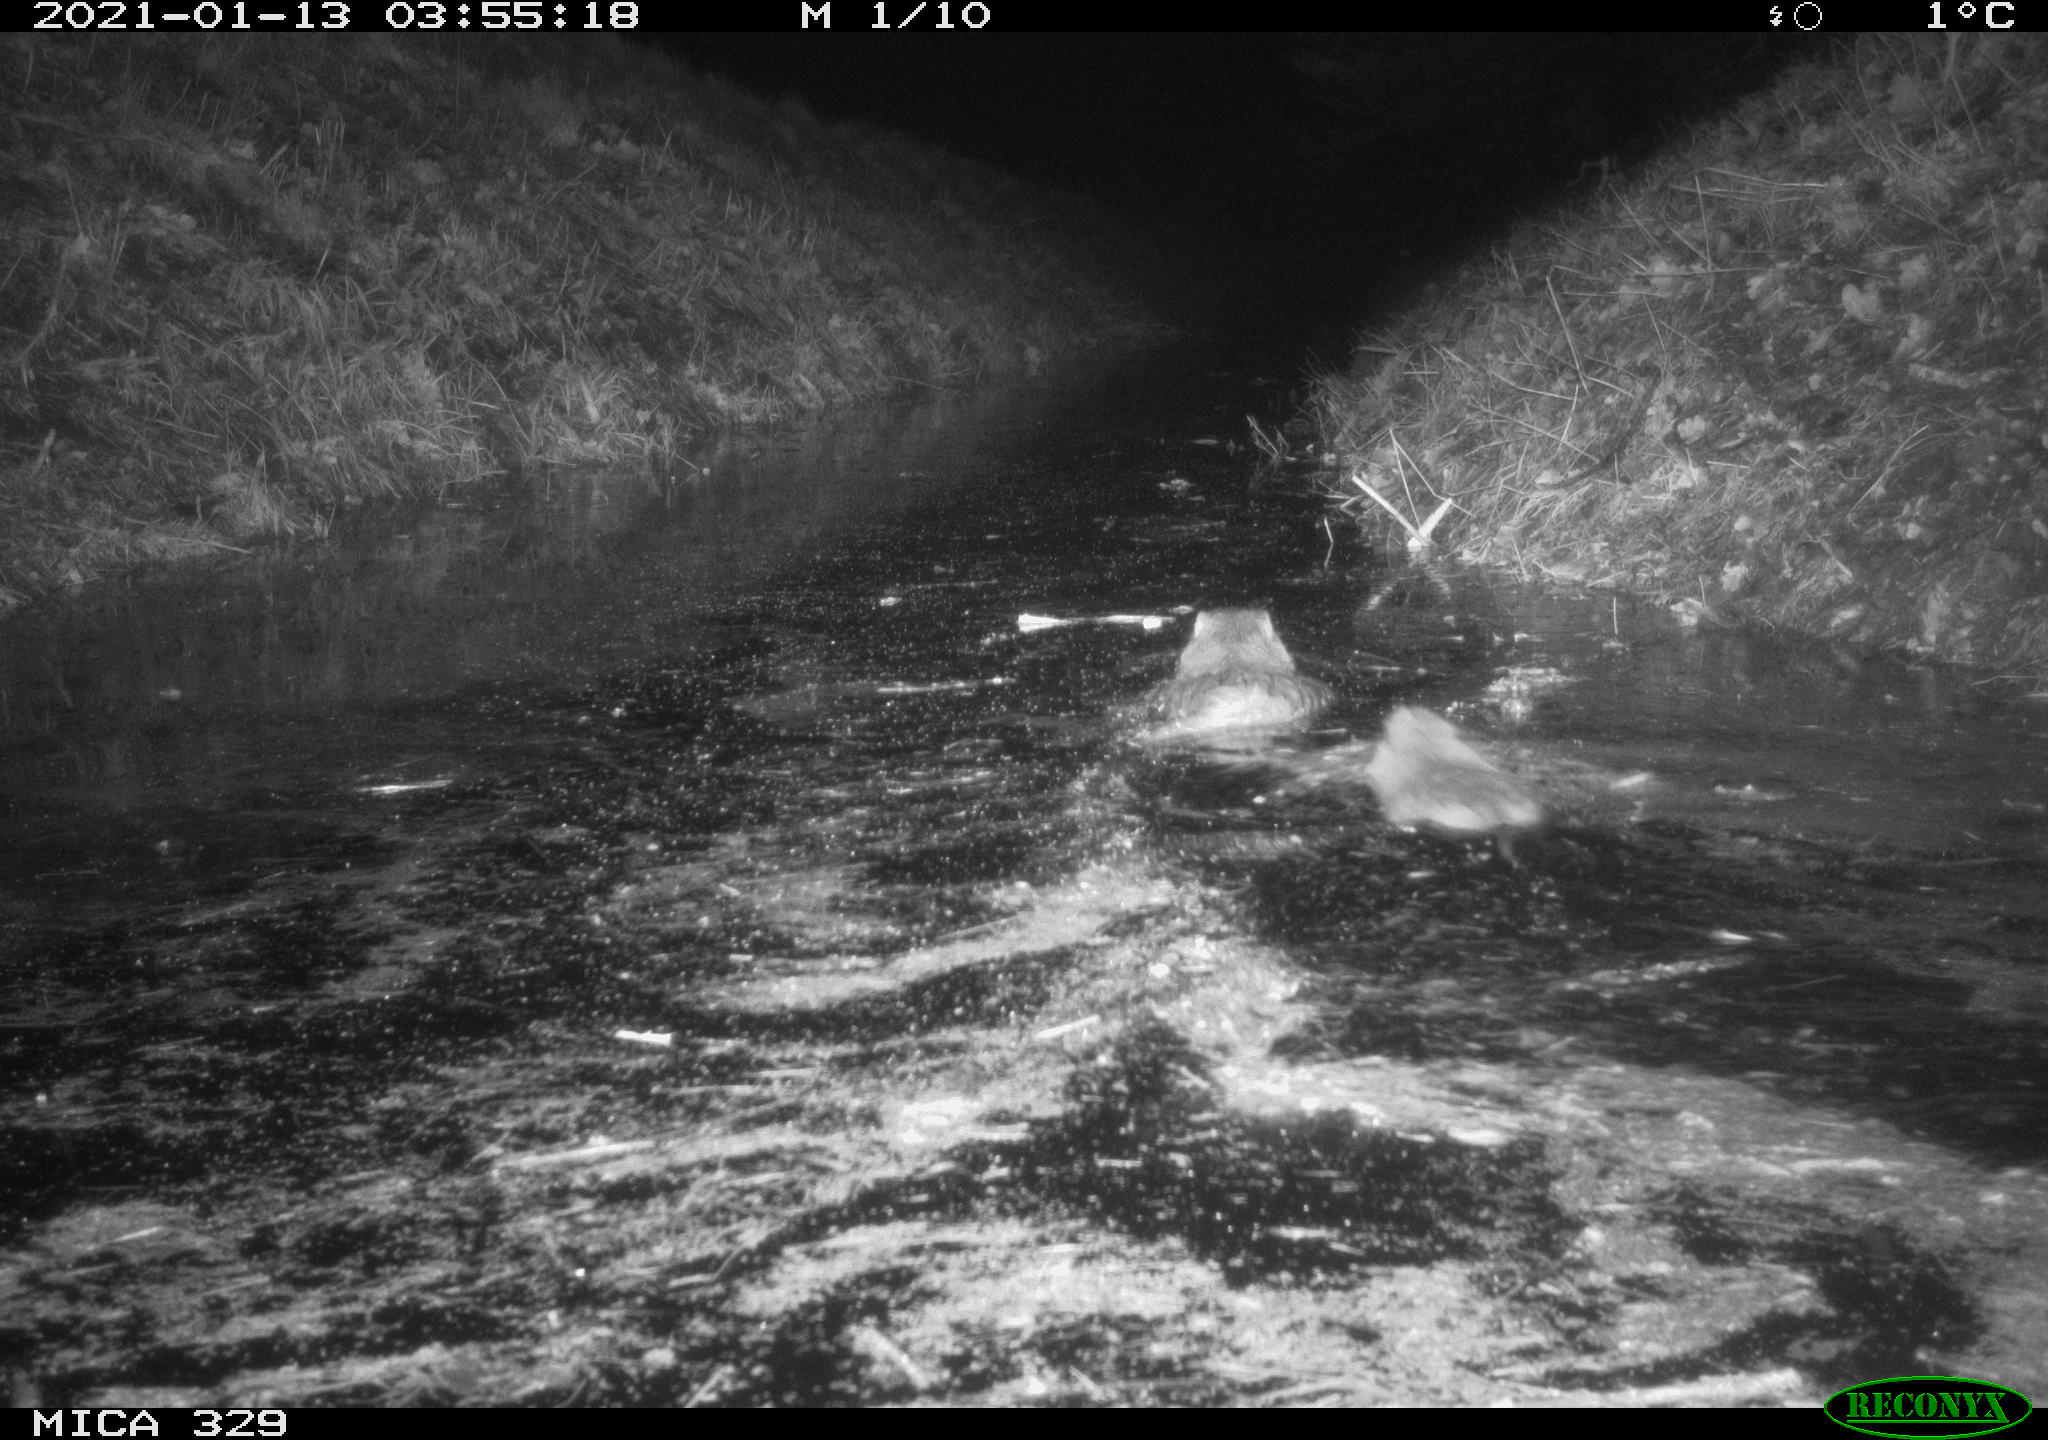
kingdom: Animalia
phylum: Chordata
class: Mammalia
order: Rodentia
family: Myocastoridae
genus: Myocastor
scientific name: Myocastor coypus
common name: Coypu
